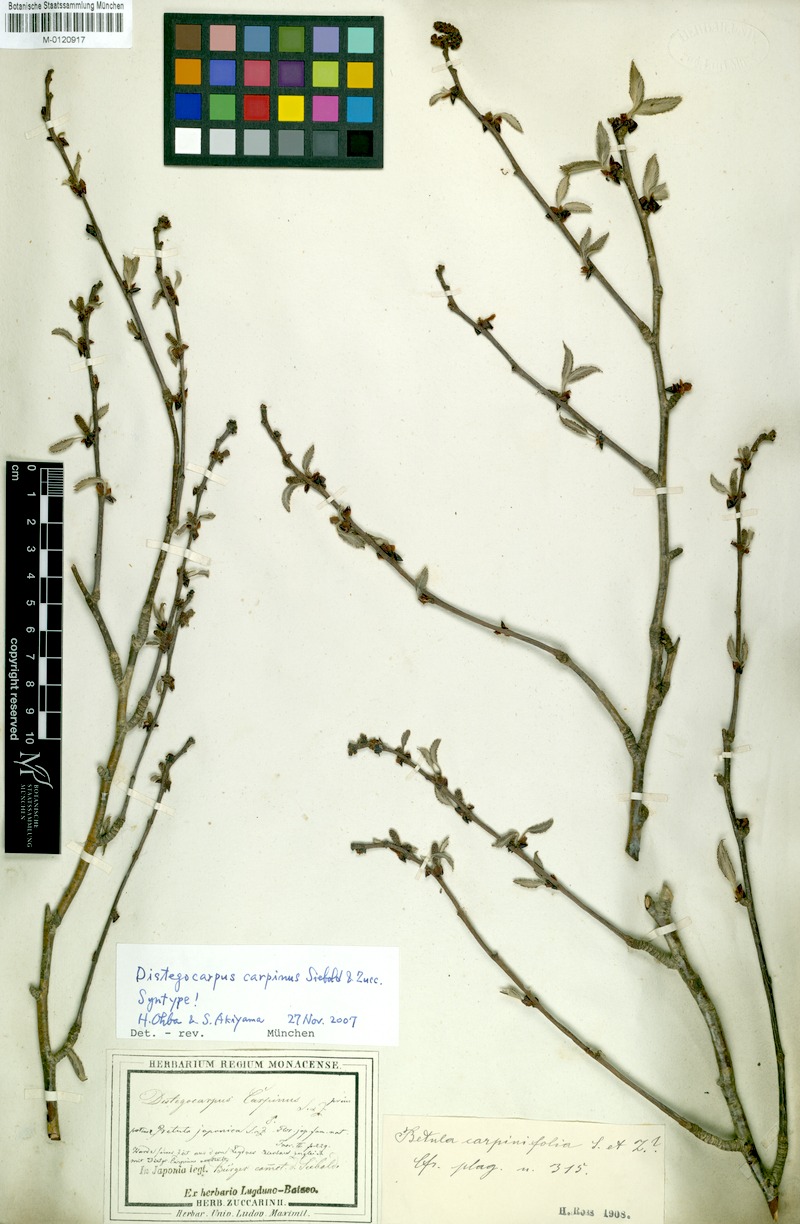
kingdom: Plantae
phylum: Tracheophyta
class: Magnoliopsida
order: Fagales
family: Betulaceae
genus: Carpinus
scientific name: Carpinus japonica
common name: Japanese hornbeam
